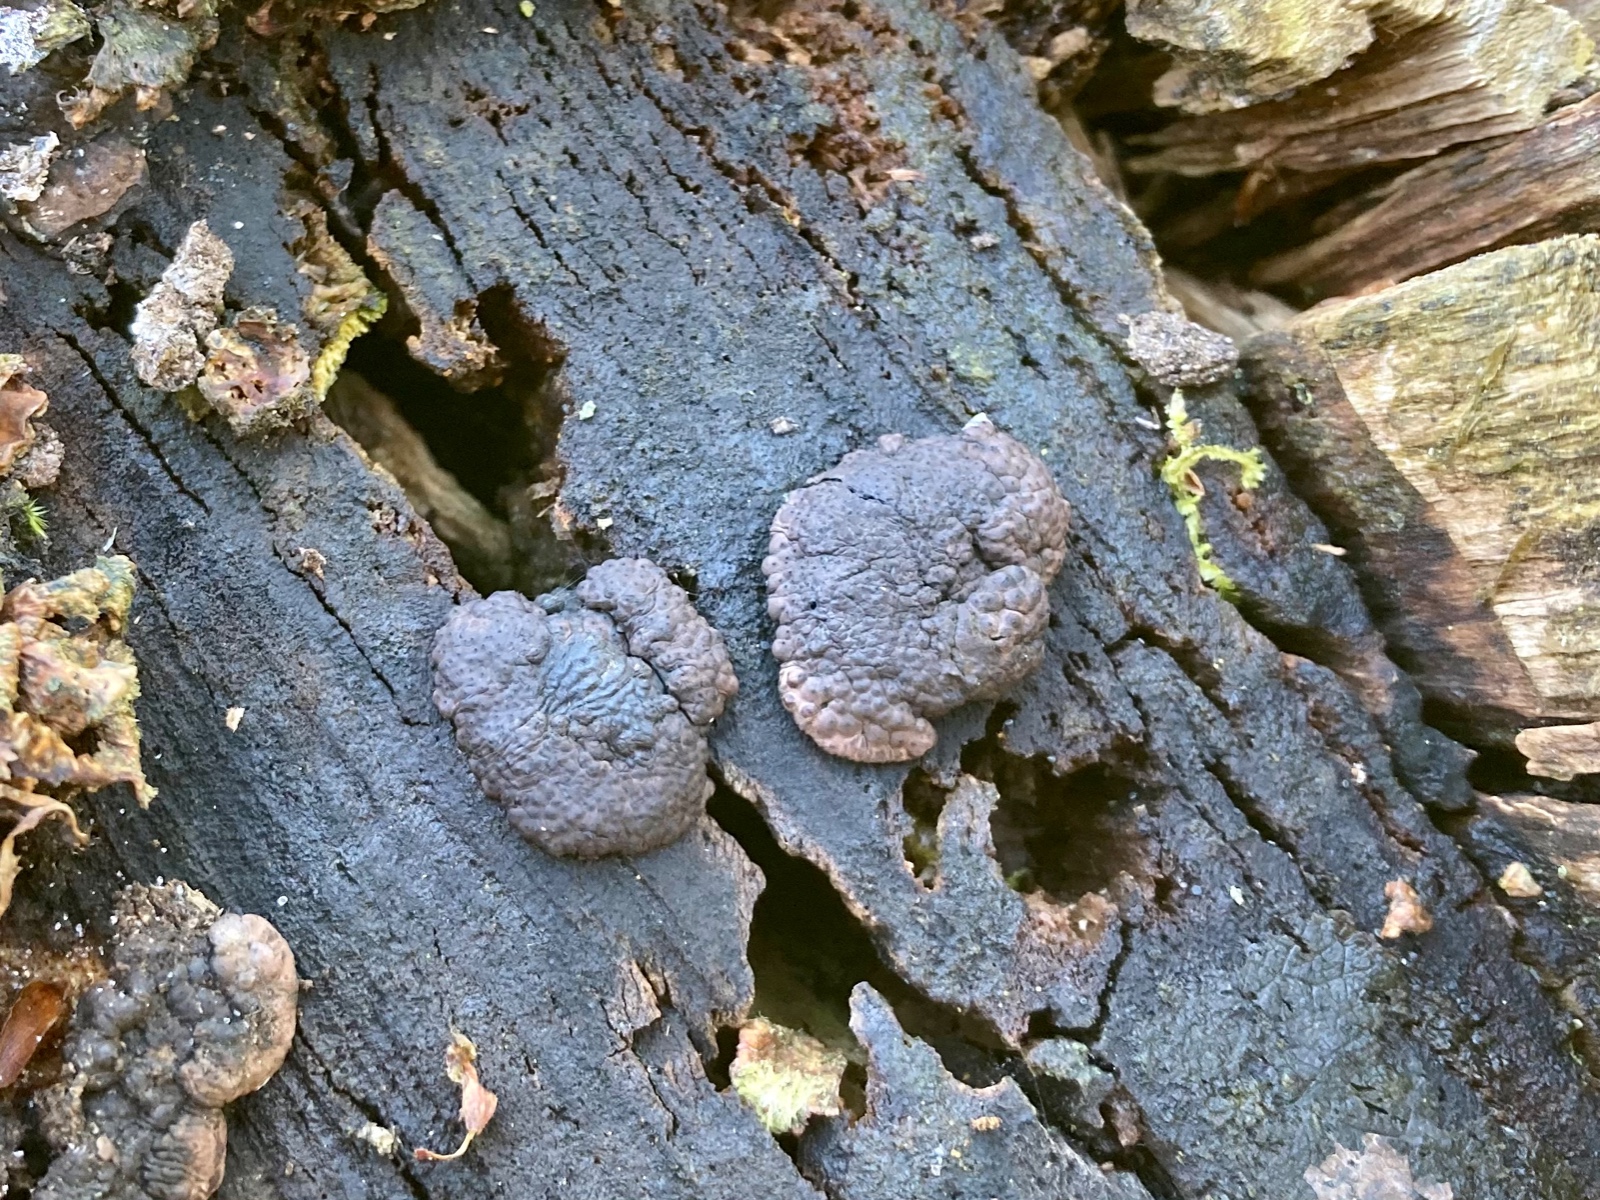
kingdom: Fungi
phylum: Ascomycota
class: Sordariomycetes
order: Xylariales
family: Hypoxylaceae
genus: Jackrogersella
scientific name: Jackrogersella multiformis
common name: foranderlig kulbær
